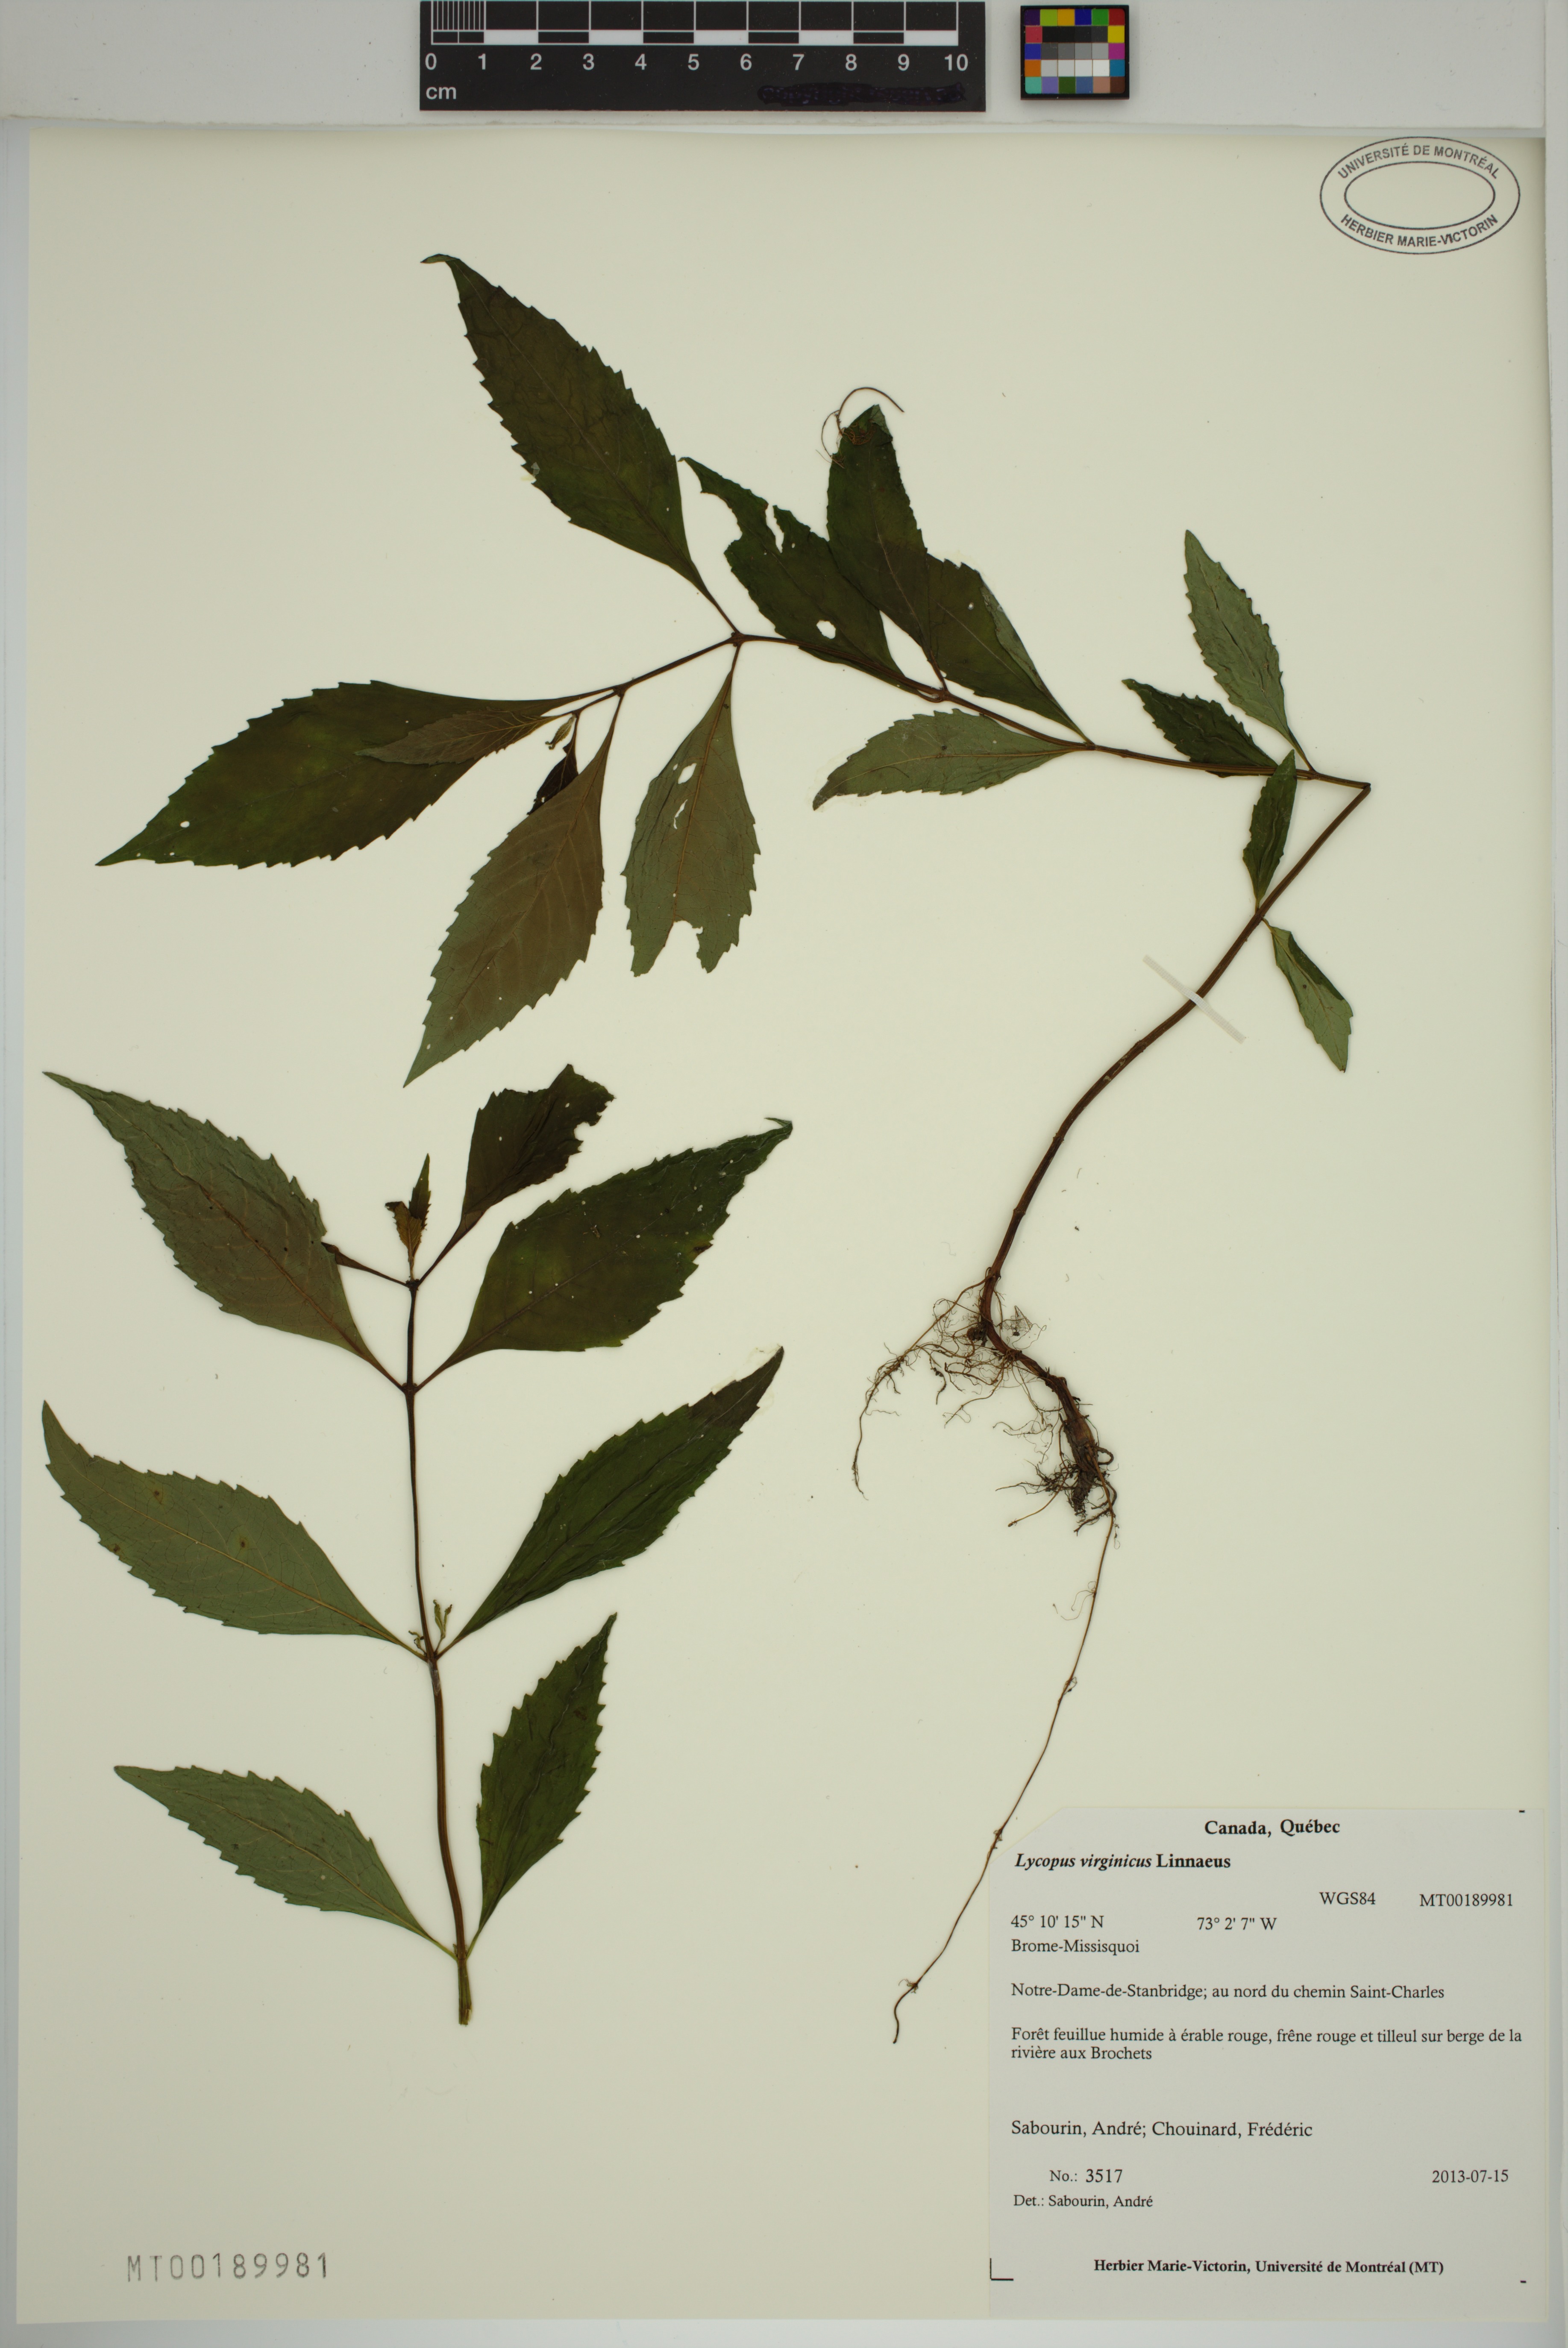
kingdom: Plantae
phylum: Tracheophyta
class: Magnoliopsida
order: Lamiales
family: Lamiaceae
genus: Lycopus
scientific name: Lycopus virginicus
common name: Bugleweed
